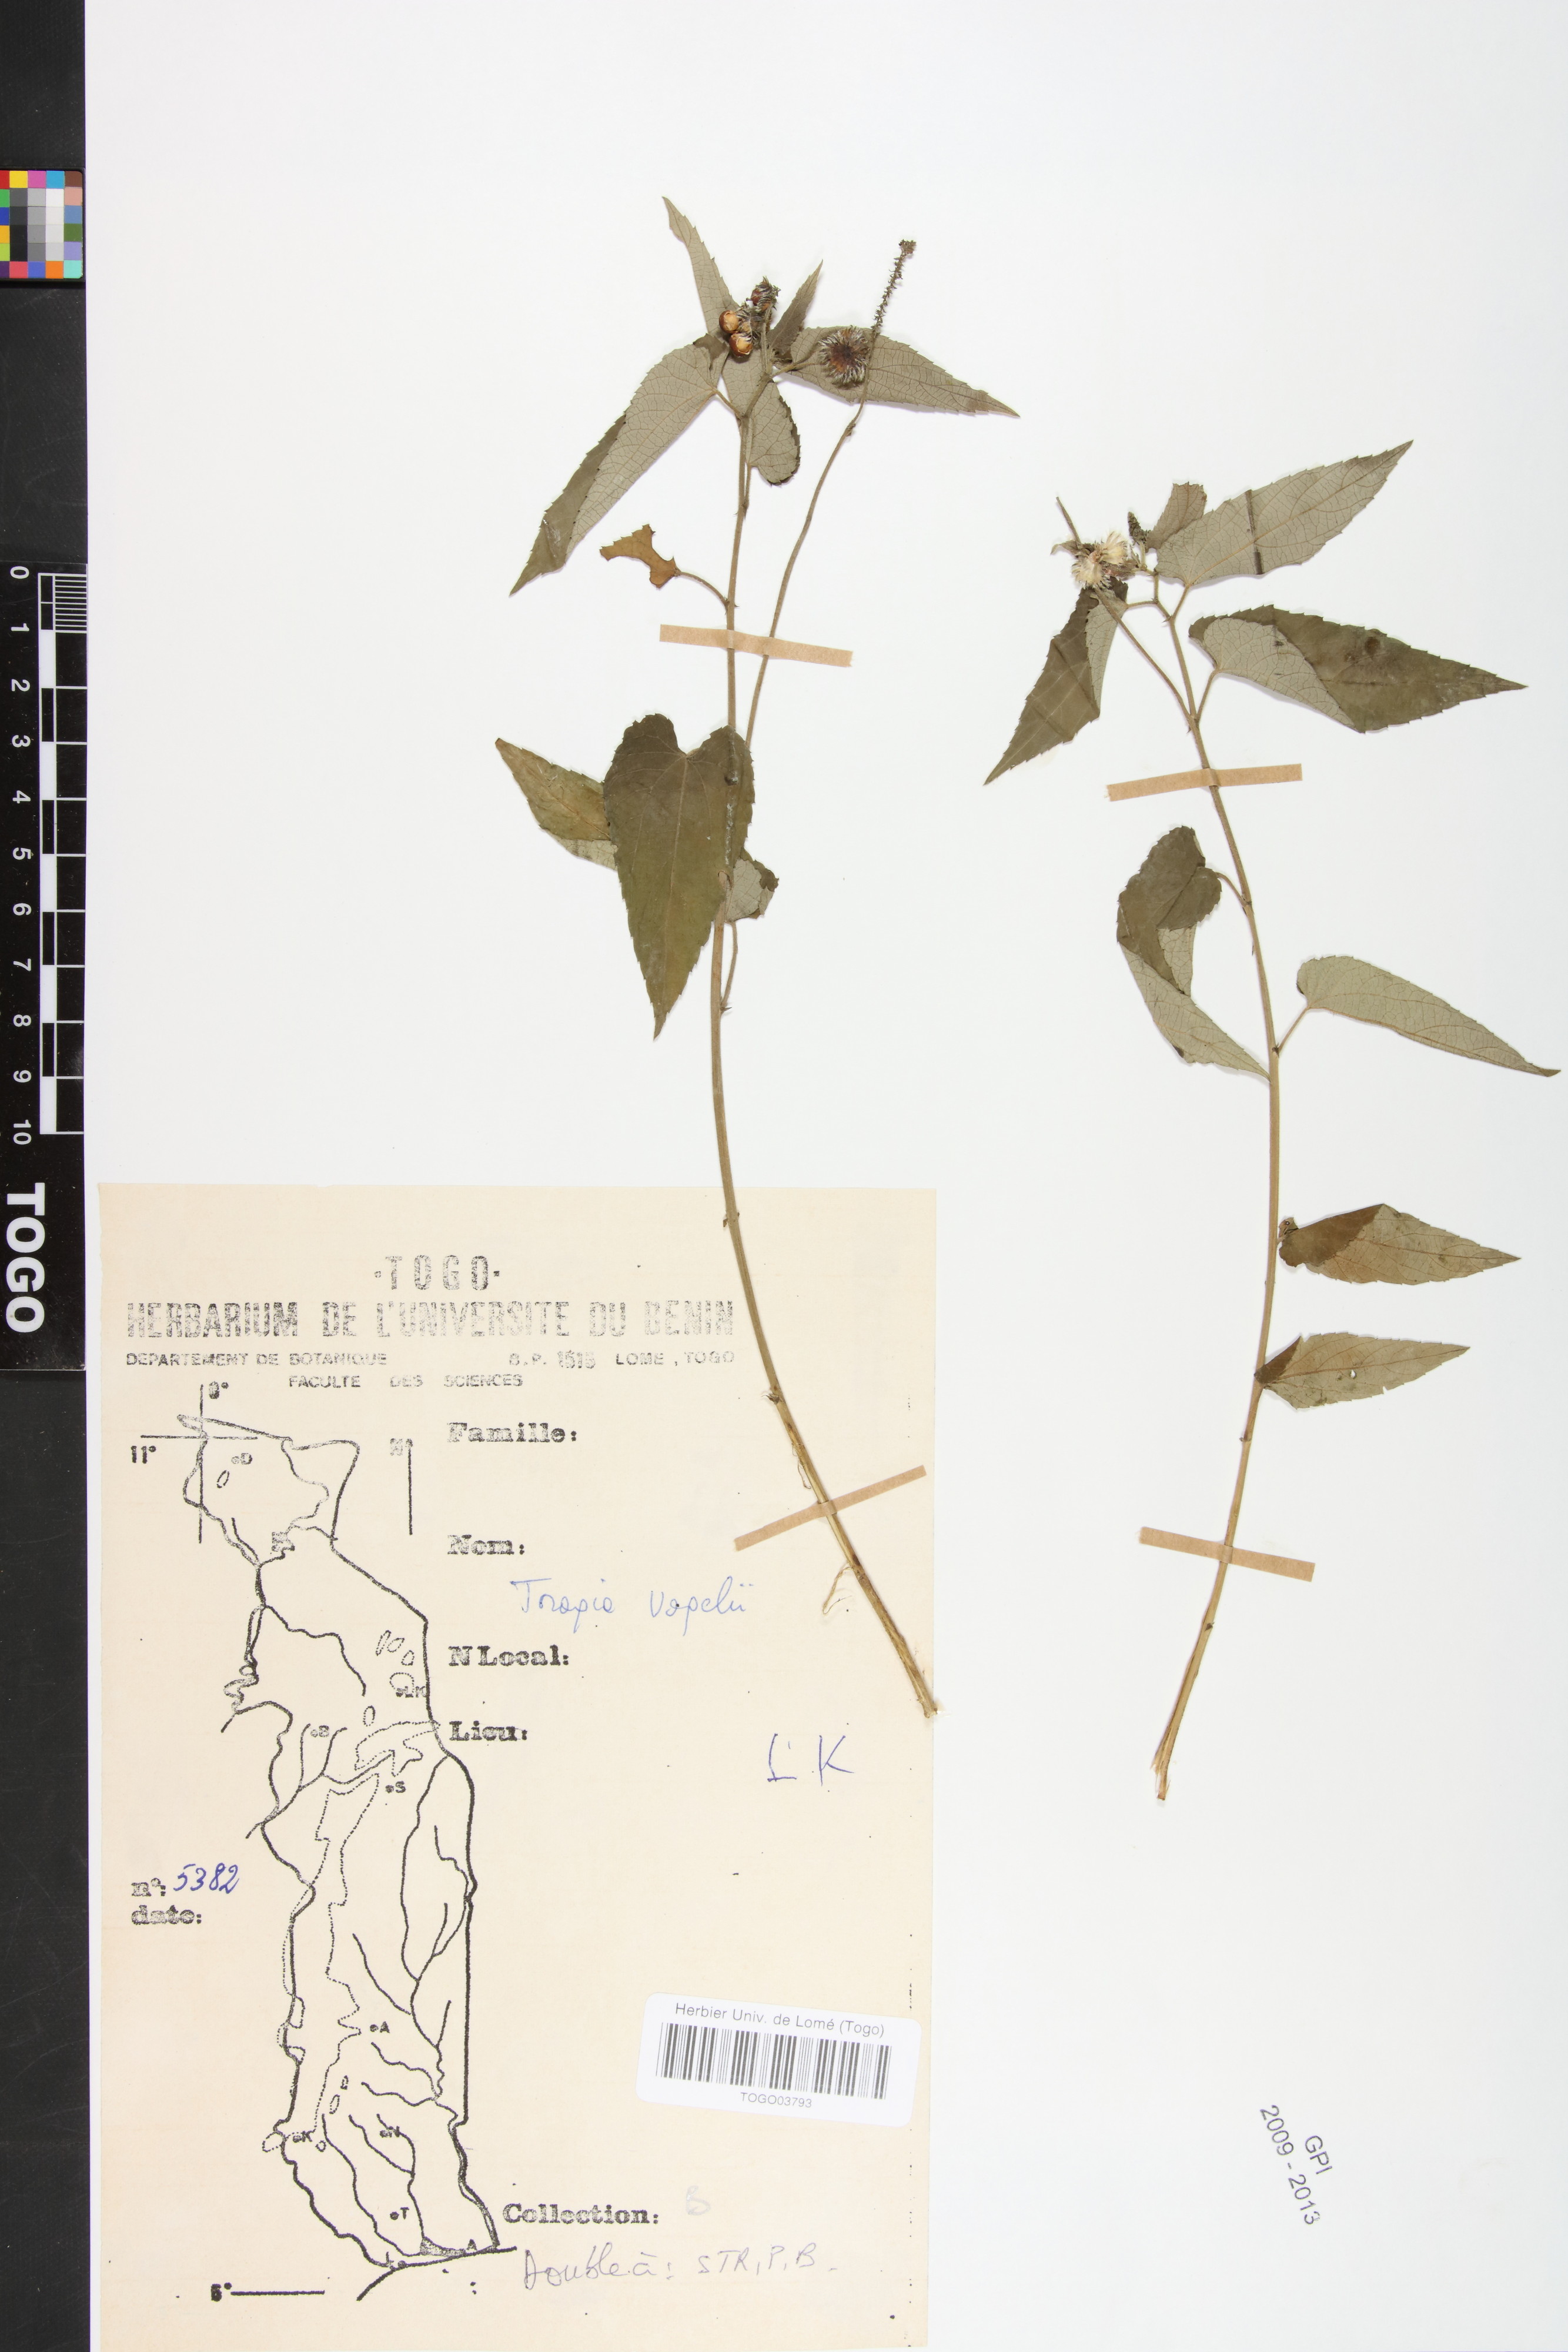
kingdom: Plantae
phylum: Tracheophyta
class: Magnoliopsida
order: Malpighiales
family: Euphorbiaceae
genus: Tragia
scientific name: Tragia vogelii
